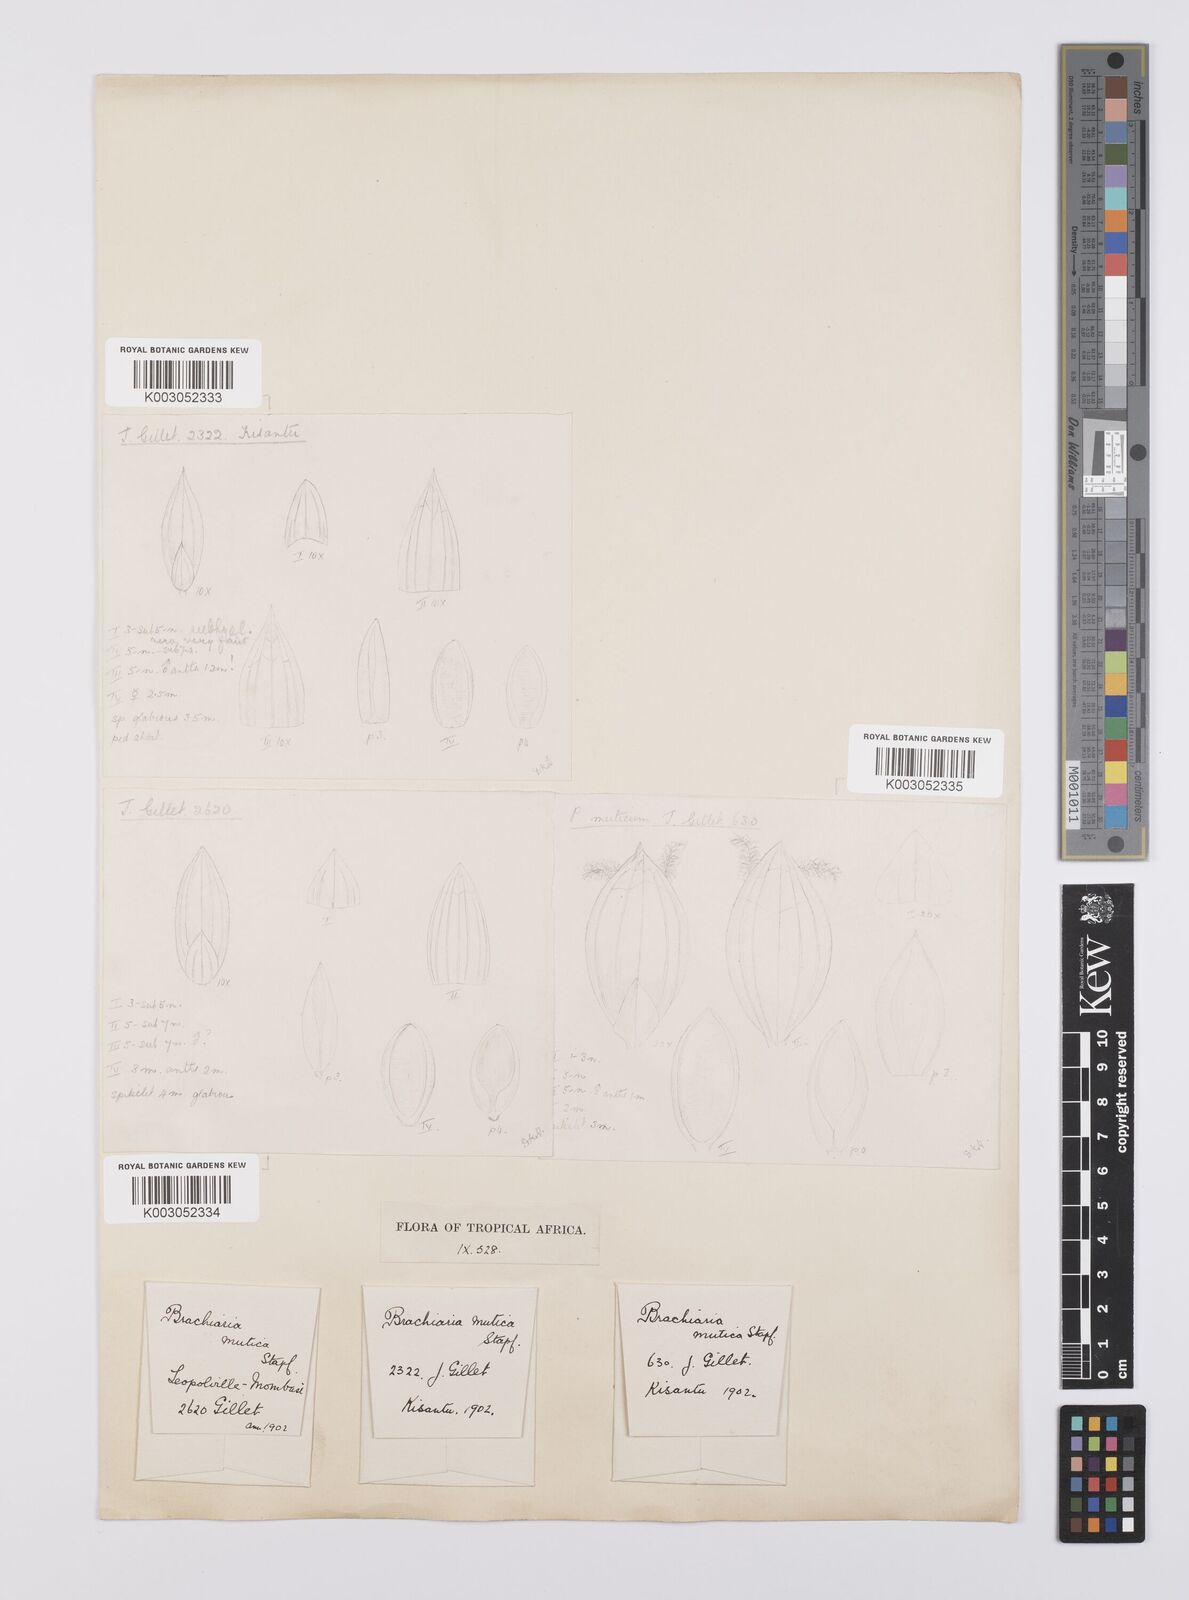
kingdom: Plantae
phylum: Tracheophyta
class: Liliopsida
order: Poales
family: Poaceae
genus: Urochloa
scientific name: Urochloa mutica
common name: Para grass
